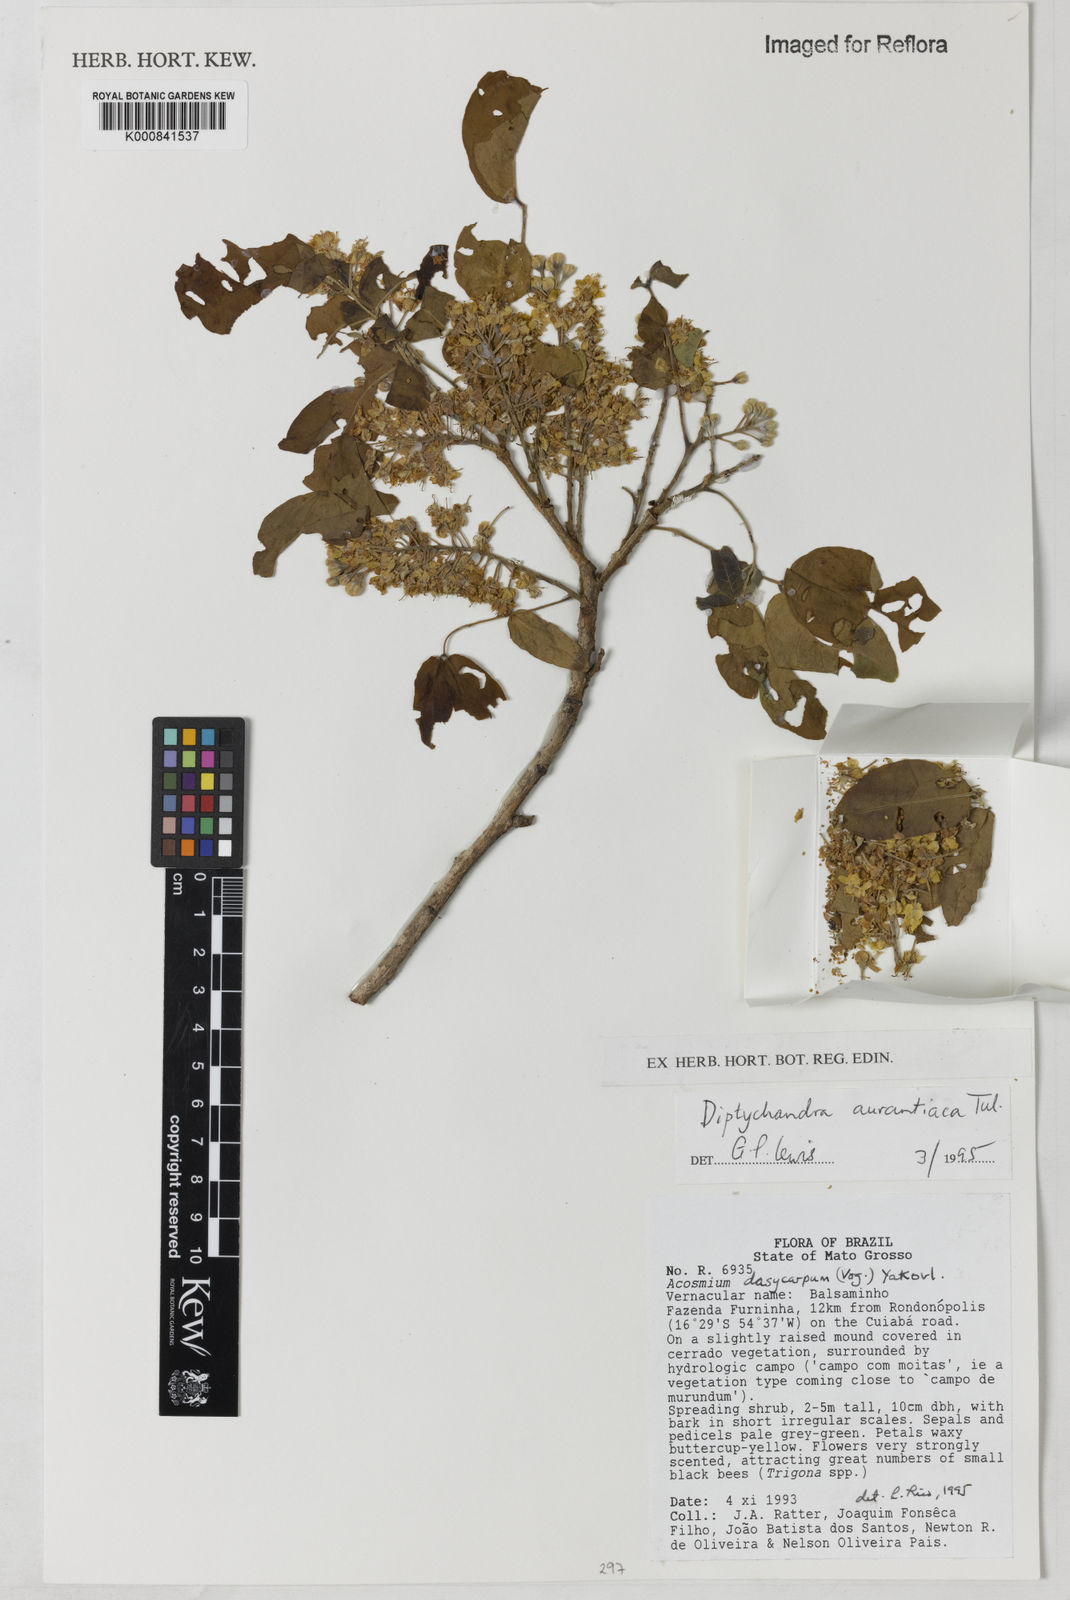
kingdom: Plantae
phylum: Tracheophyta
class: Magnoliopsida
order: Fabales
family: Fabaceae
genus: Diptychandra
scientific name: Diptychandra aurantiaca
